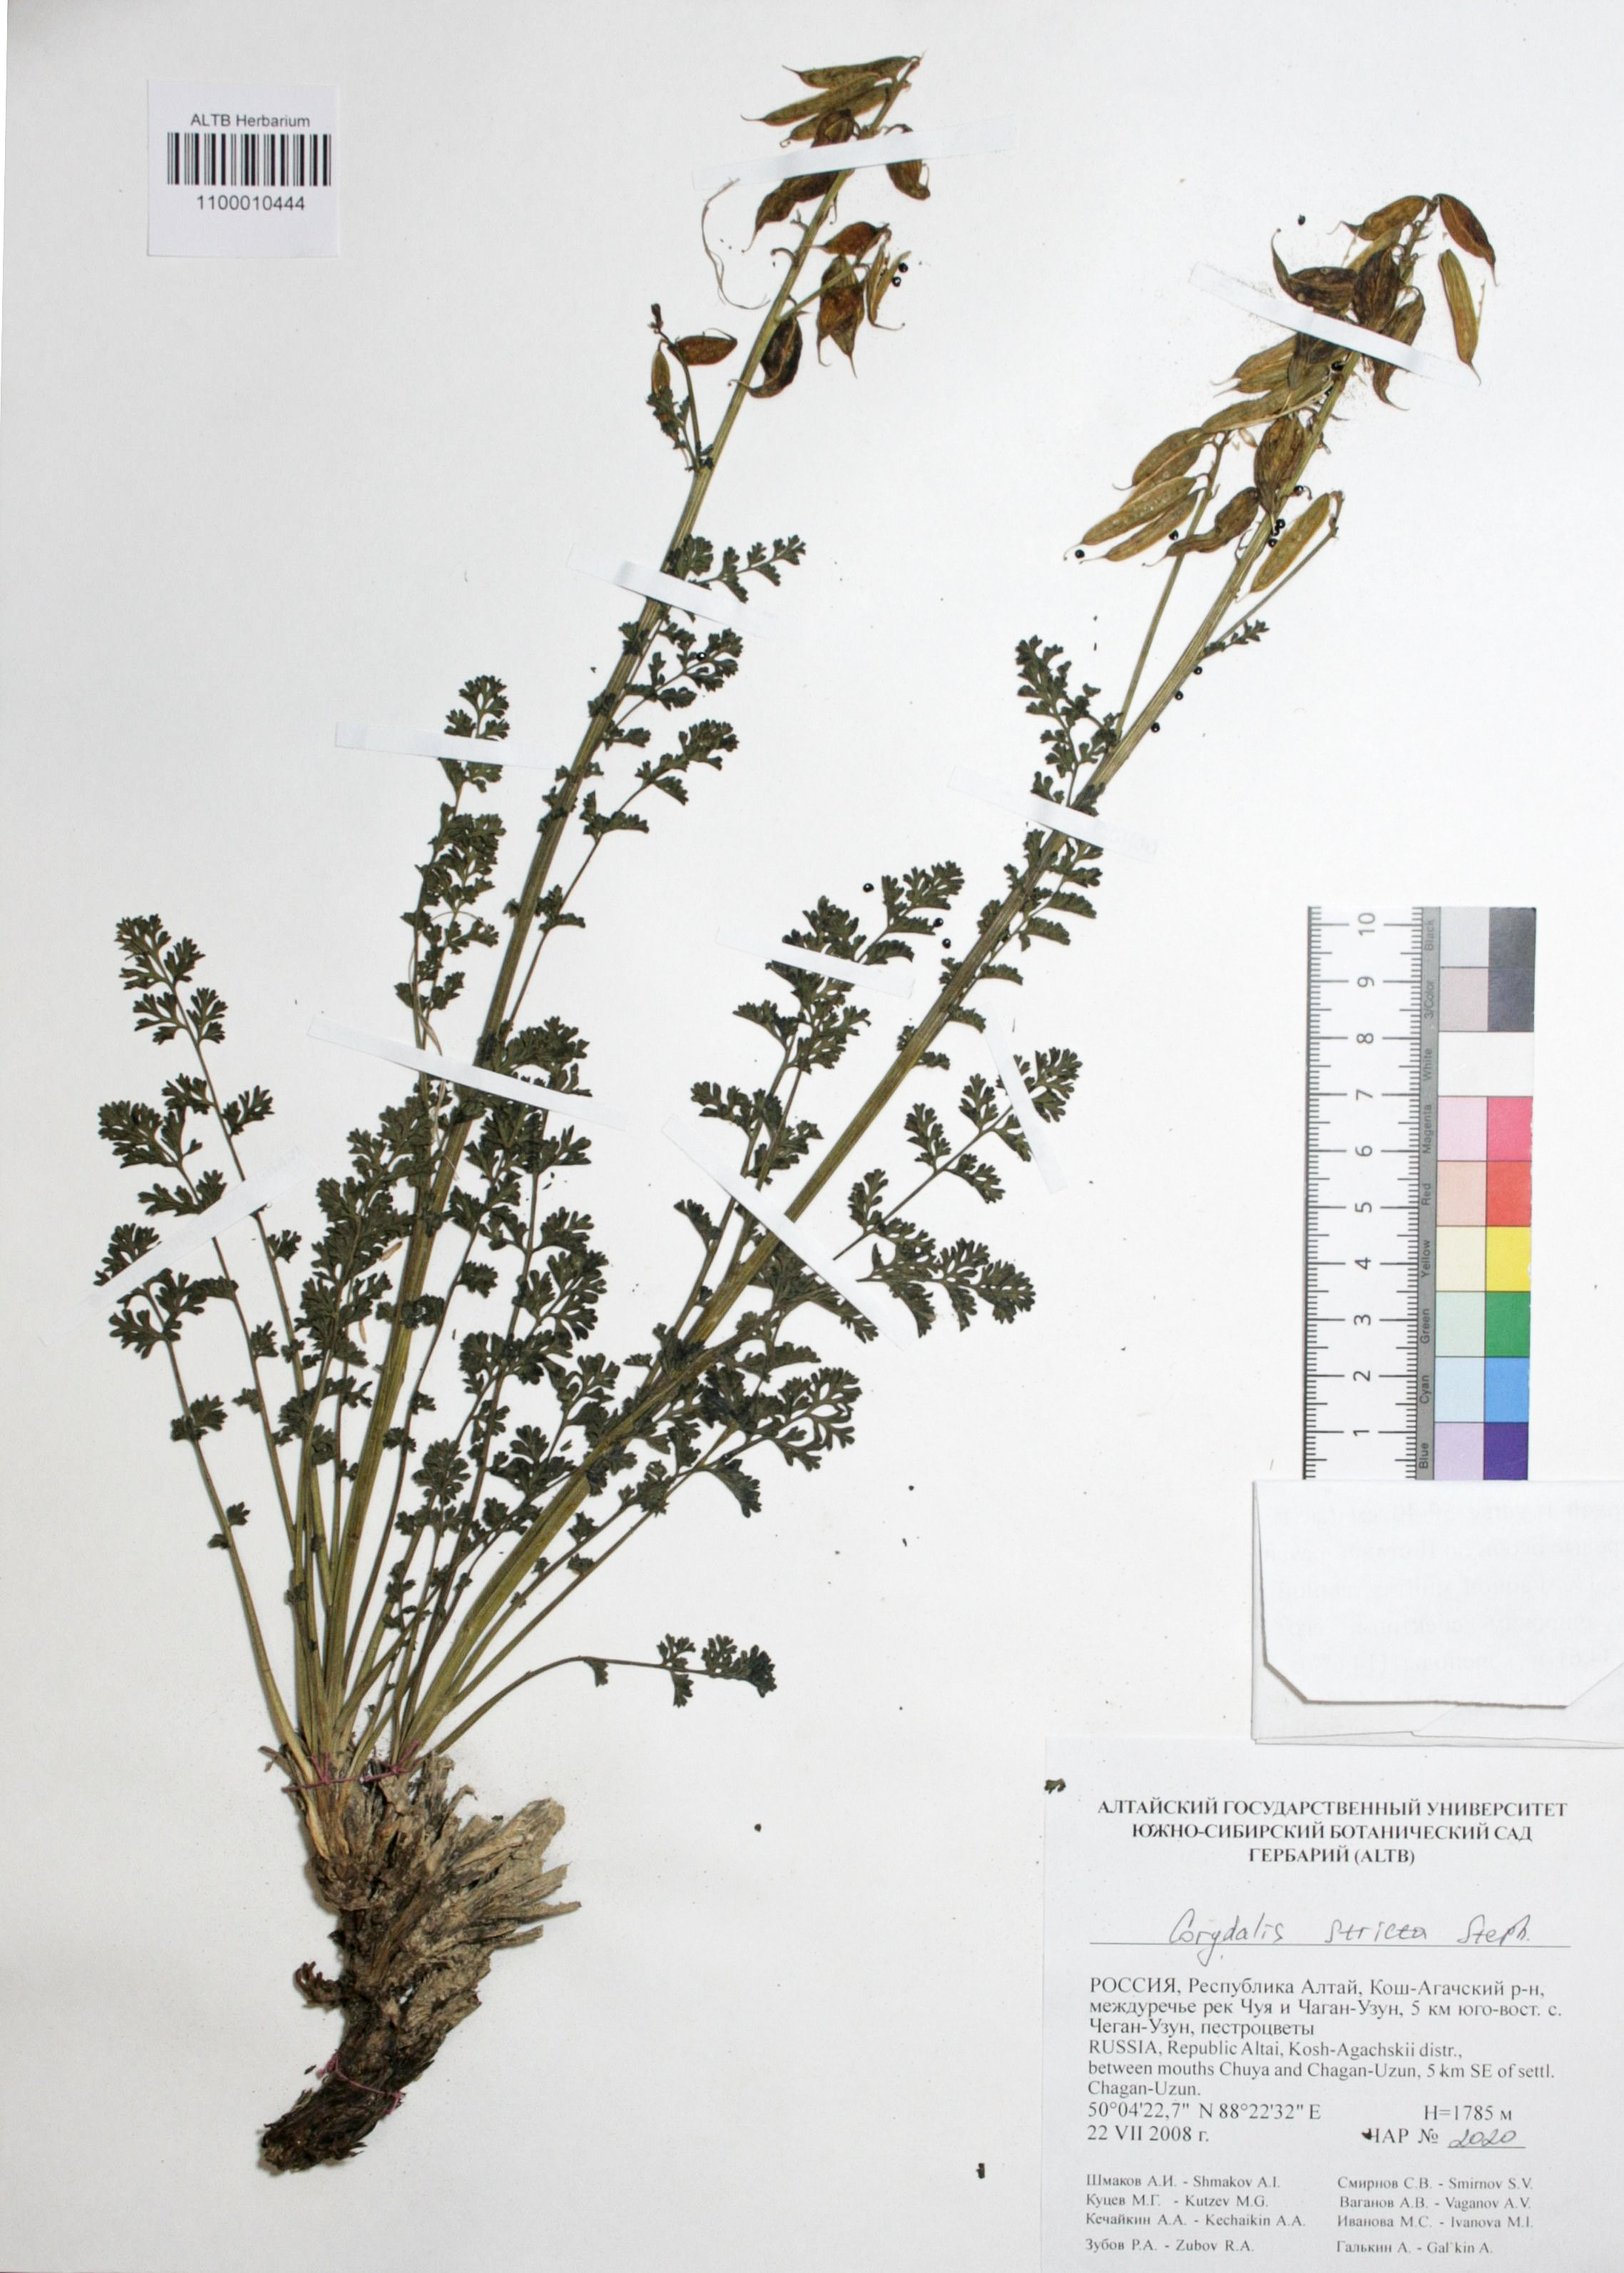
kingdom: Plantae
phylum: Tracheophyta
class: Magnoliopsida
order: Ranunculales
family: Papaveraceae
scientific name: Papaveraceae
